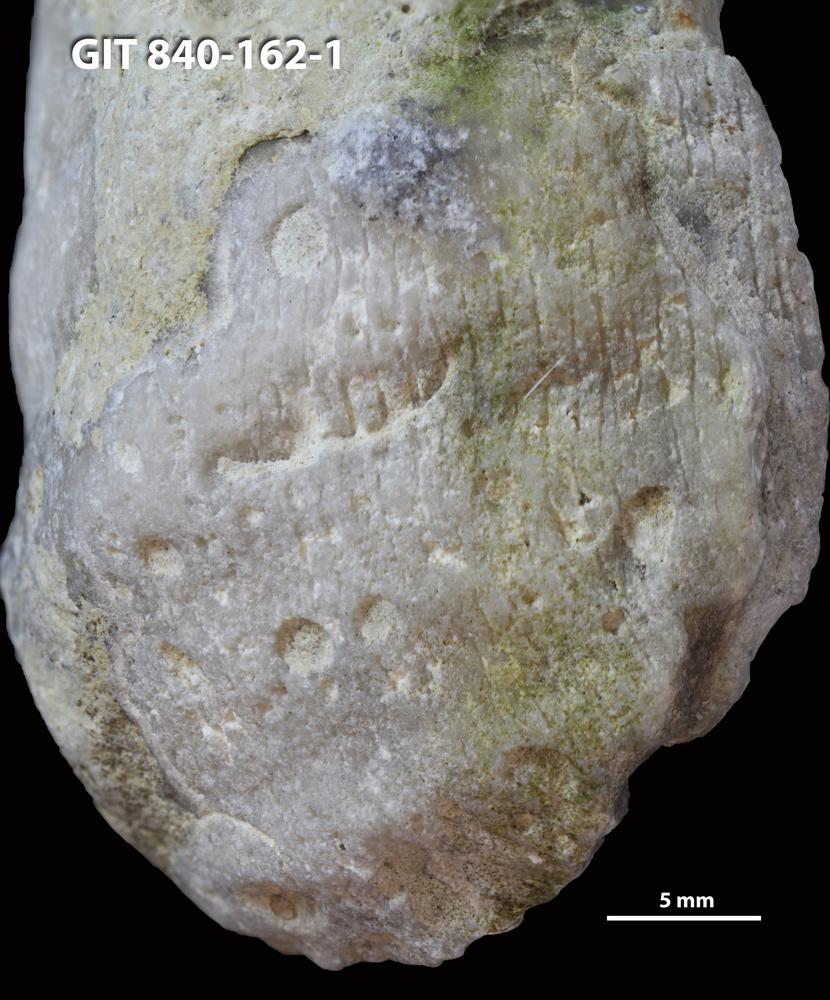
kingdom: Animalia
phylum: Sipuncula
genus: Trypanites
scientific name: Trypanites
